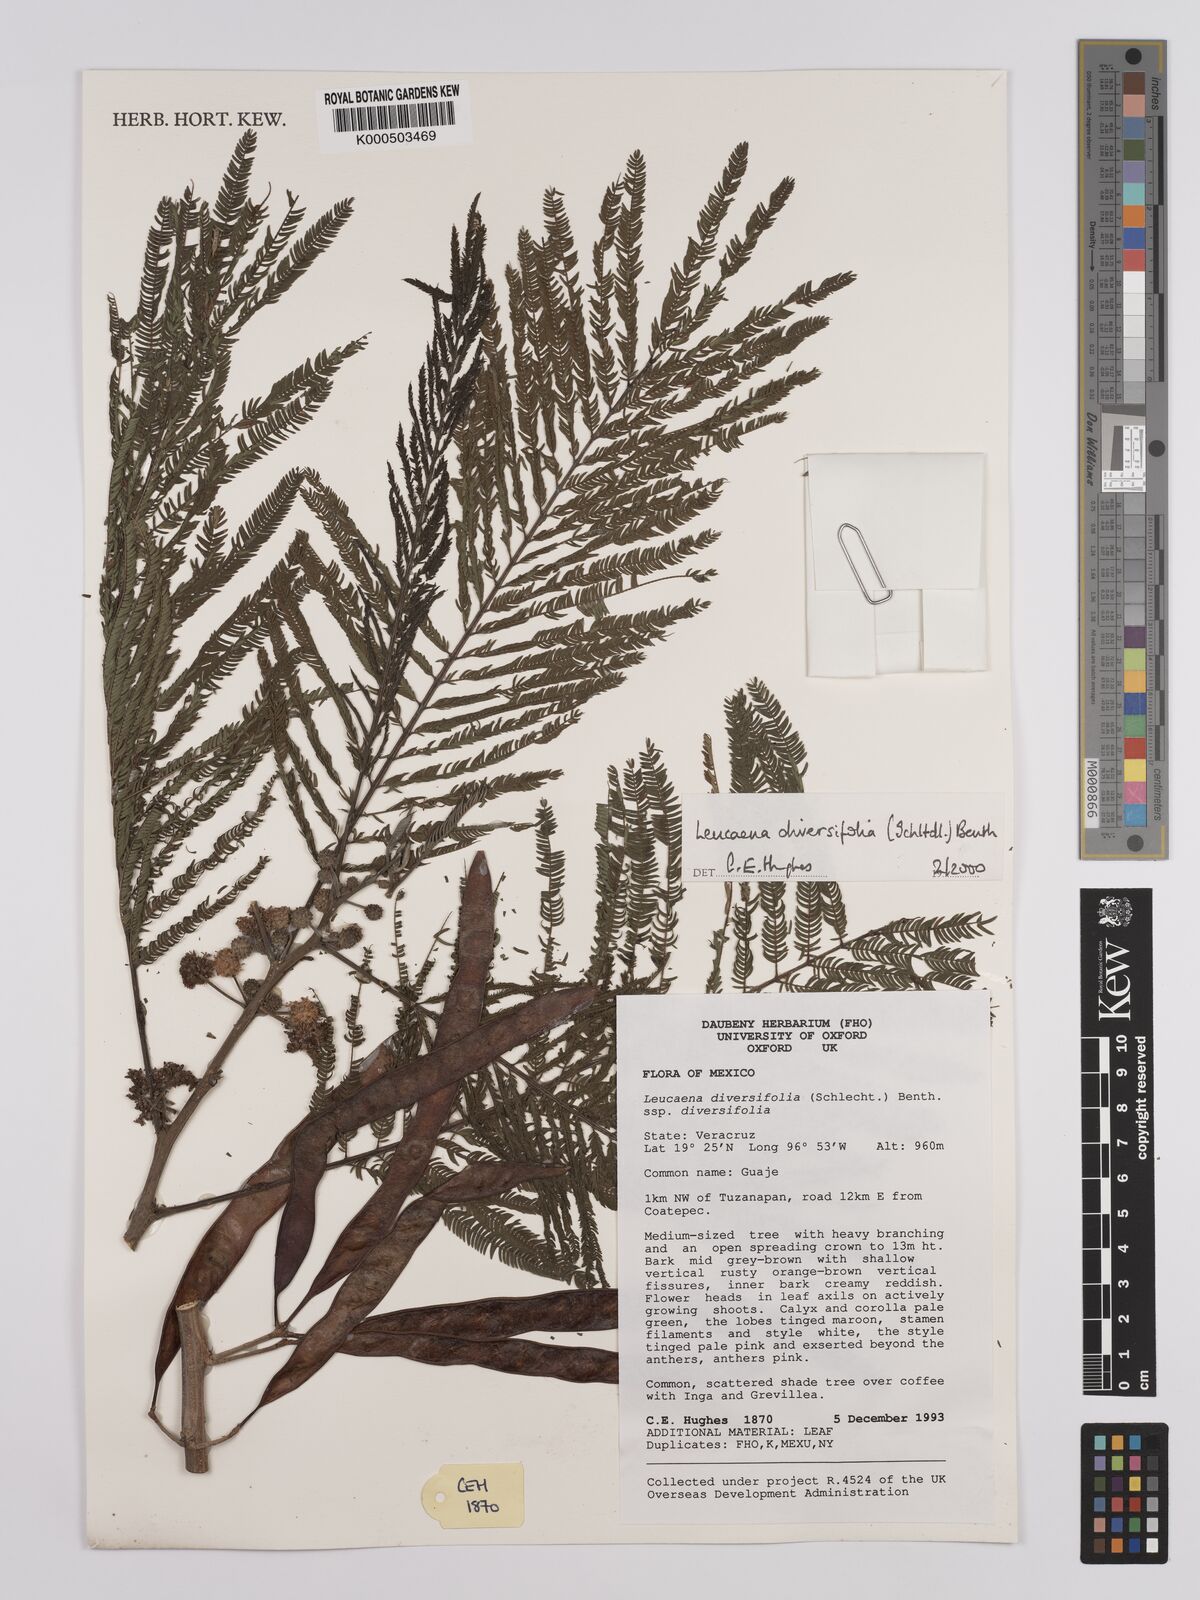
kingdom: Plantae
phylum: Tracheophyta
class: Magnoliopsida
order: Fabales
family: Fabaceae
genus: Leucaena
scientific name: Leucaena diversifolia
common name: Red leucaena
